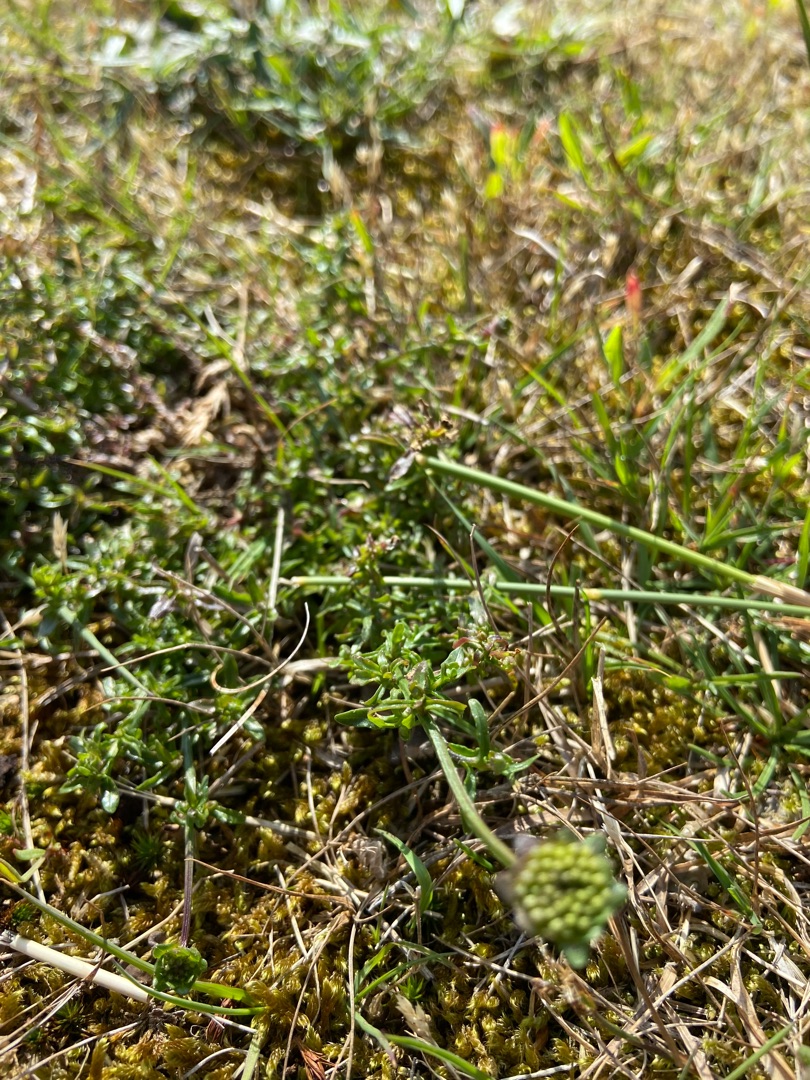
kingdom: Plantae
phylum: Tracheophyta
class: Magnoliopsida
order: Asterales
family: Campanulaceae
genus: Jasione
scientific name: Jasione montana
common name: Blåmunke
